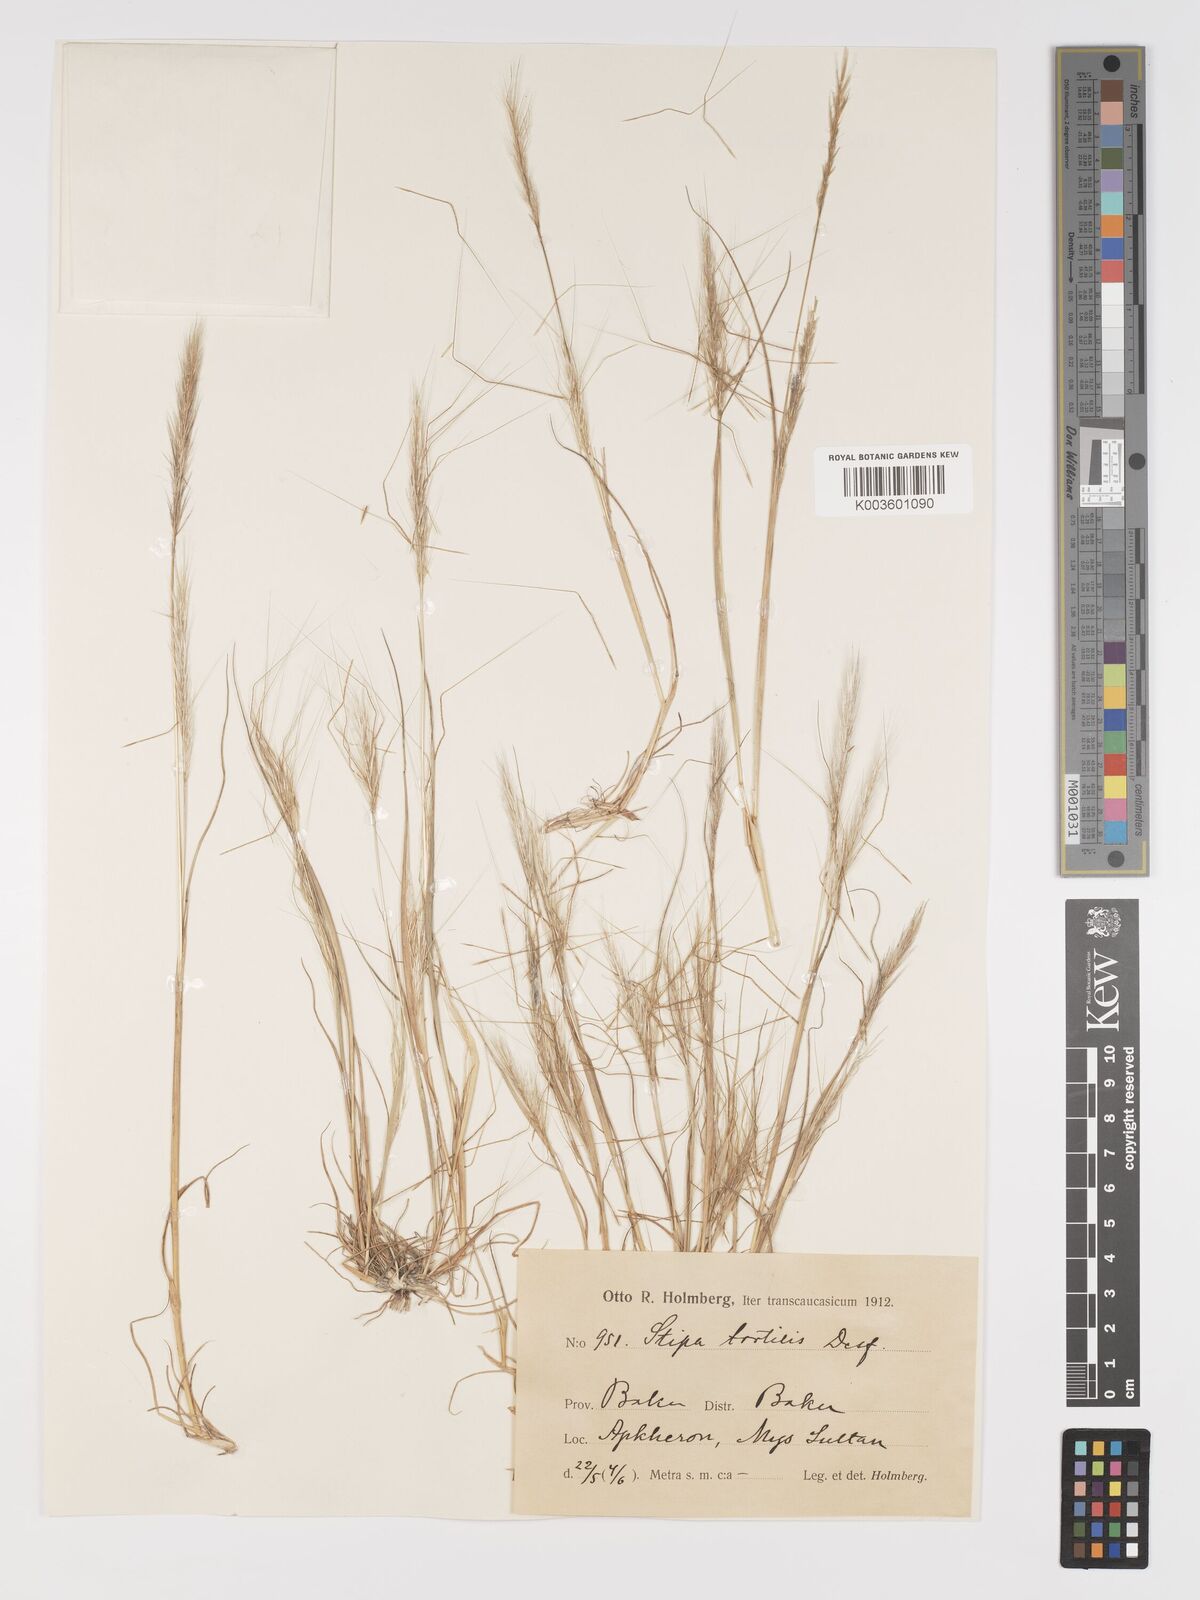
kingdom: Plantae
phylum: Tracheophyta
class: Liliopsida
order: Poales
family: Poaceae
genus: Stipa
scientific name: Stipa dregeana
